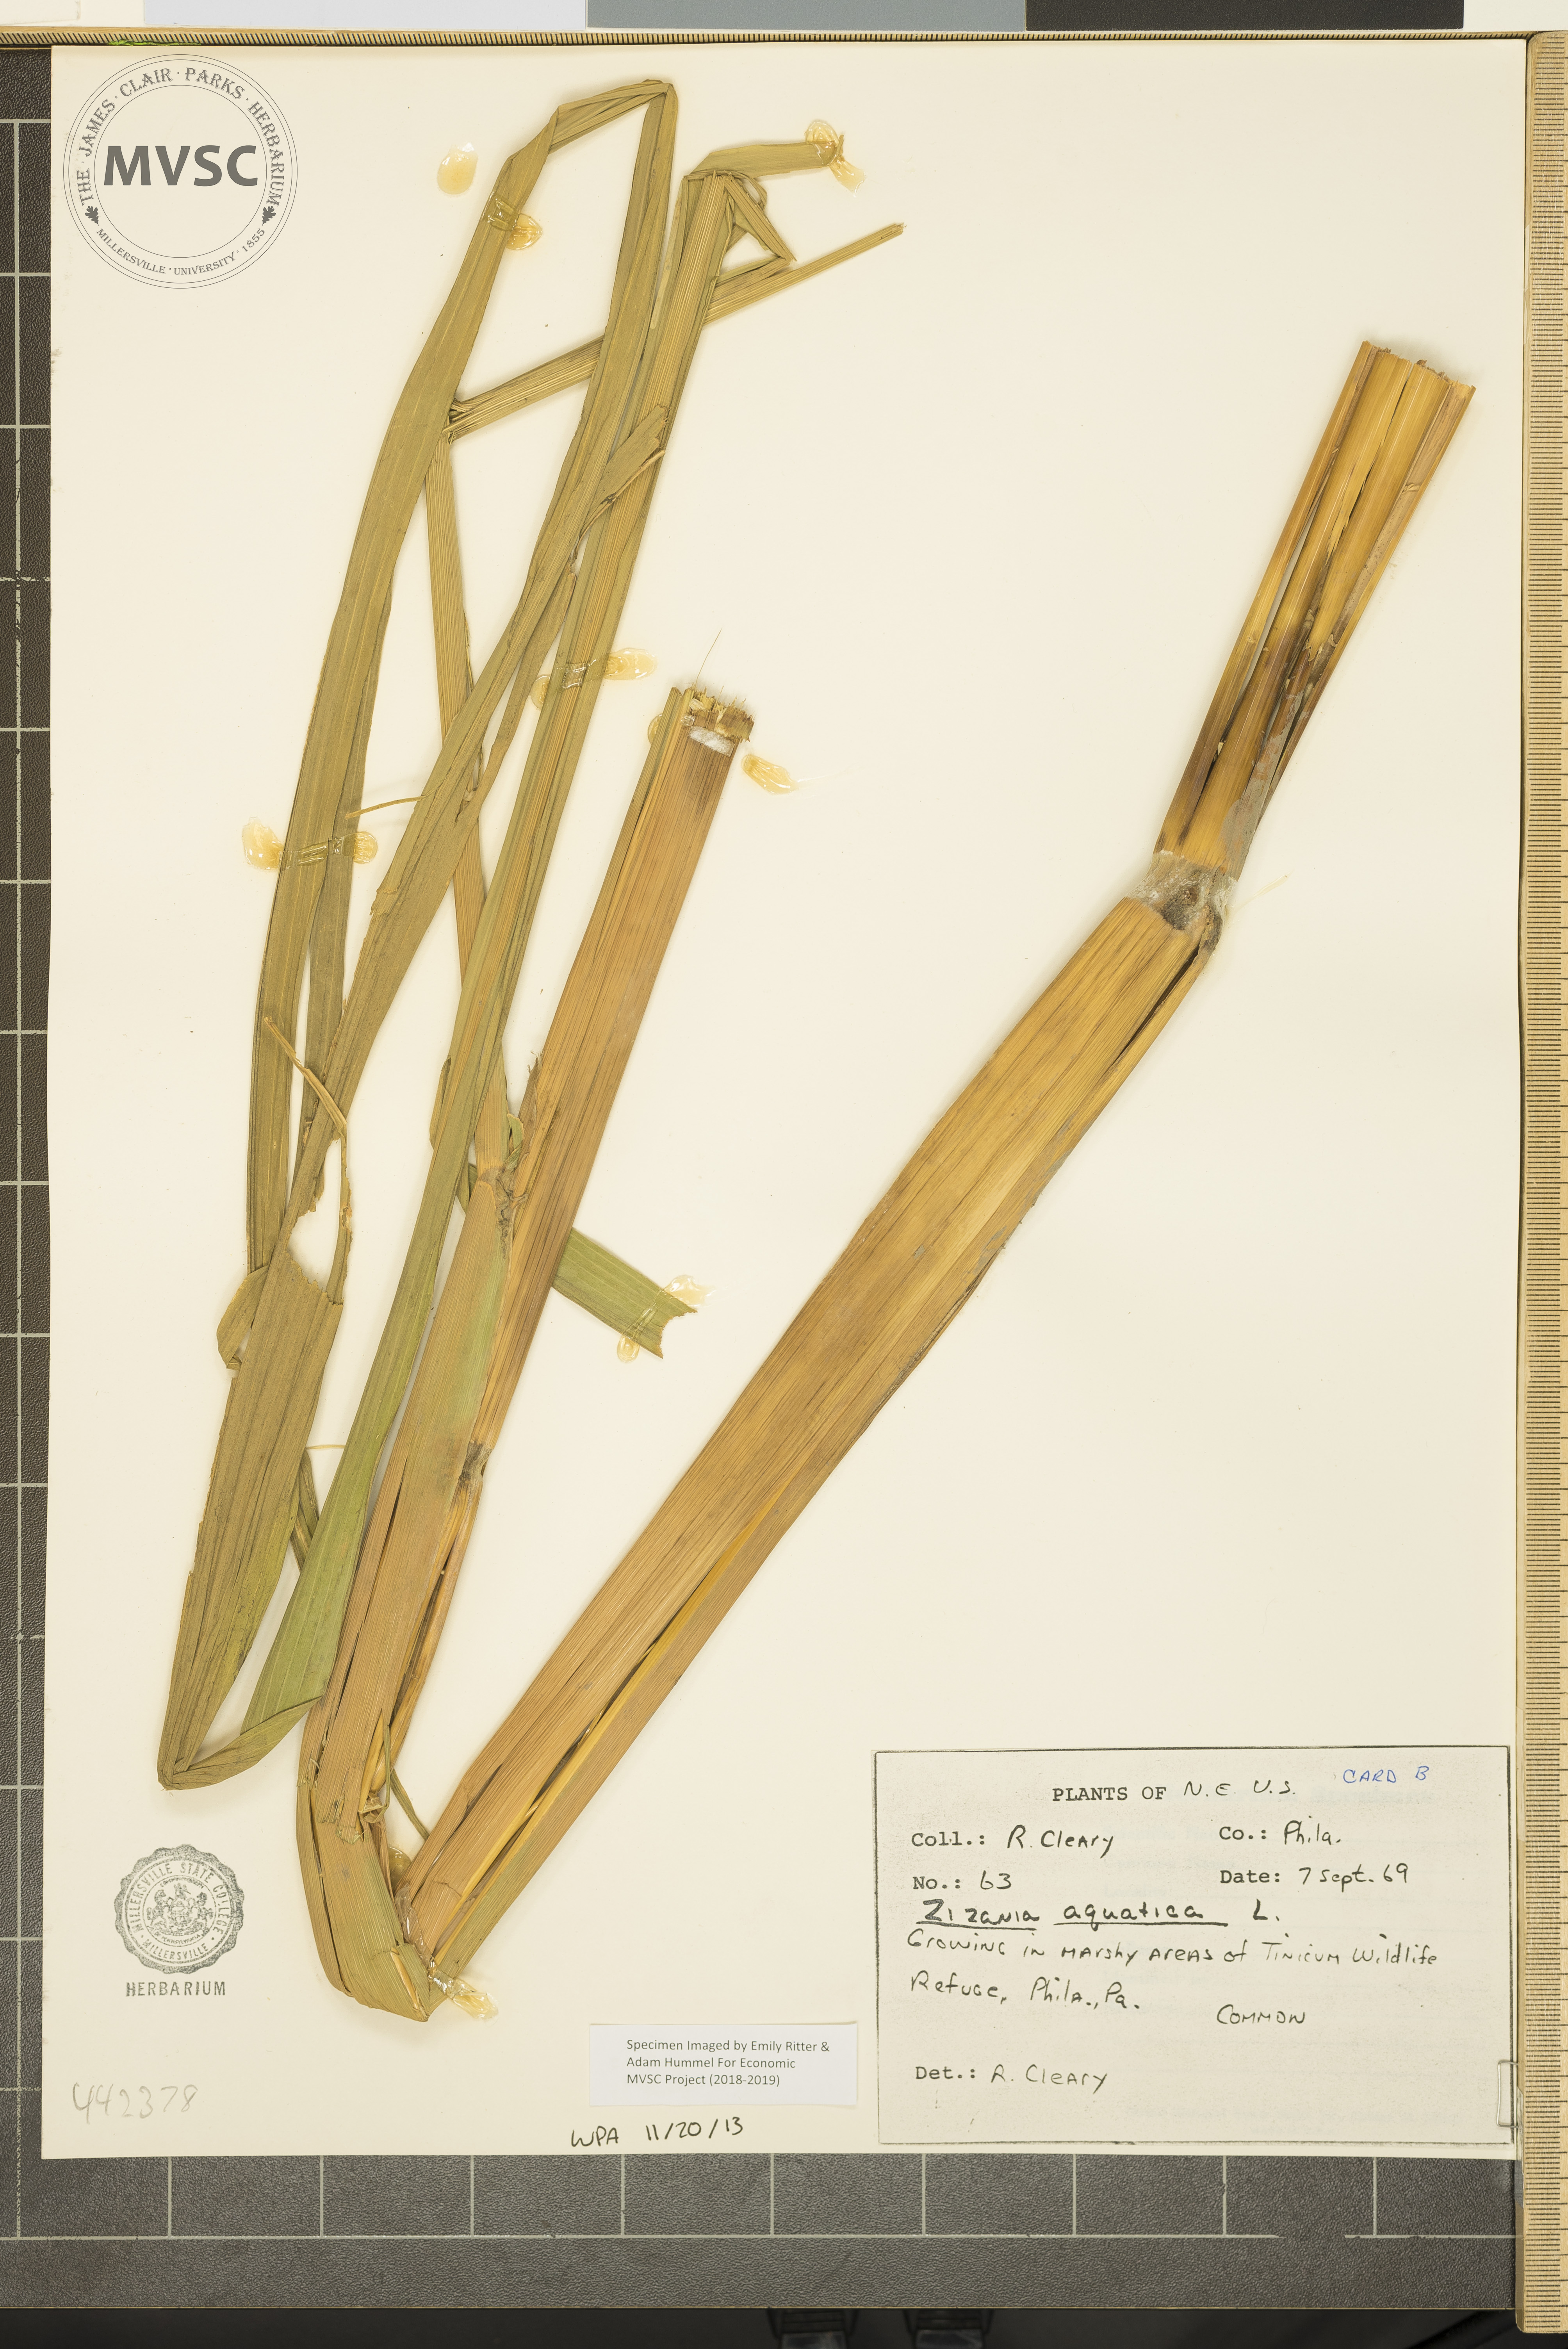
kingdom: Plantae
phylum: Tracheophyta
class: Liliopsida
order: Poales
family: Poaceae
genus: Zizania
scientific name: Zizania aquatica
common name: Annual wildrice
